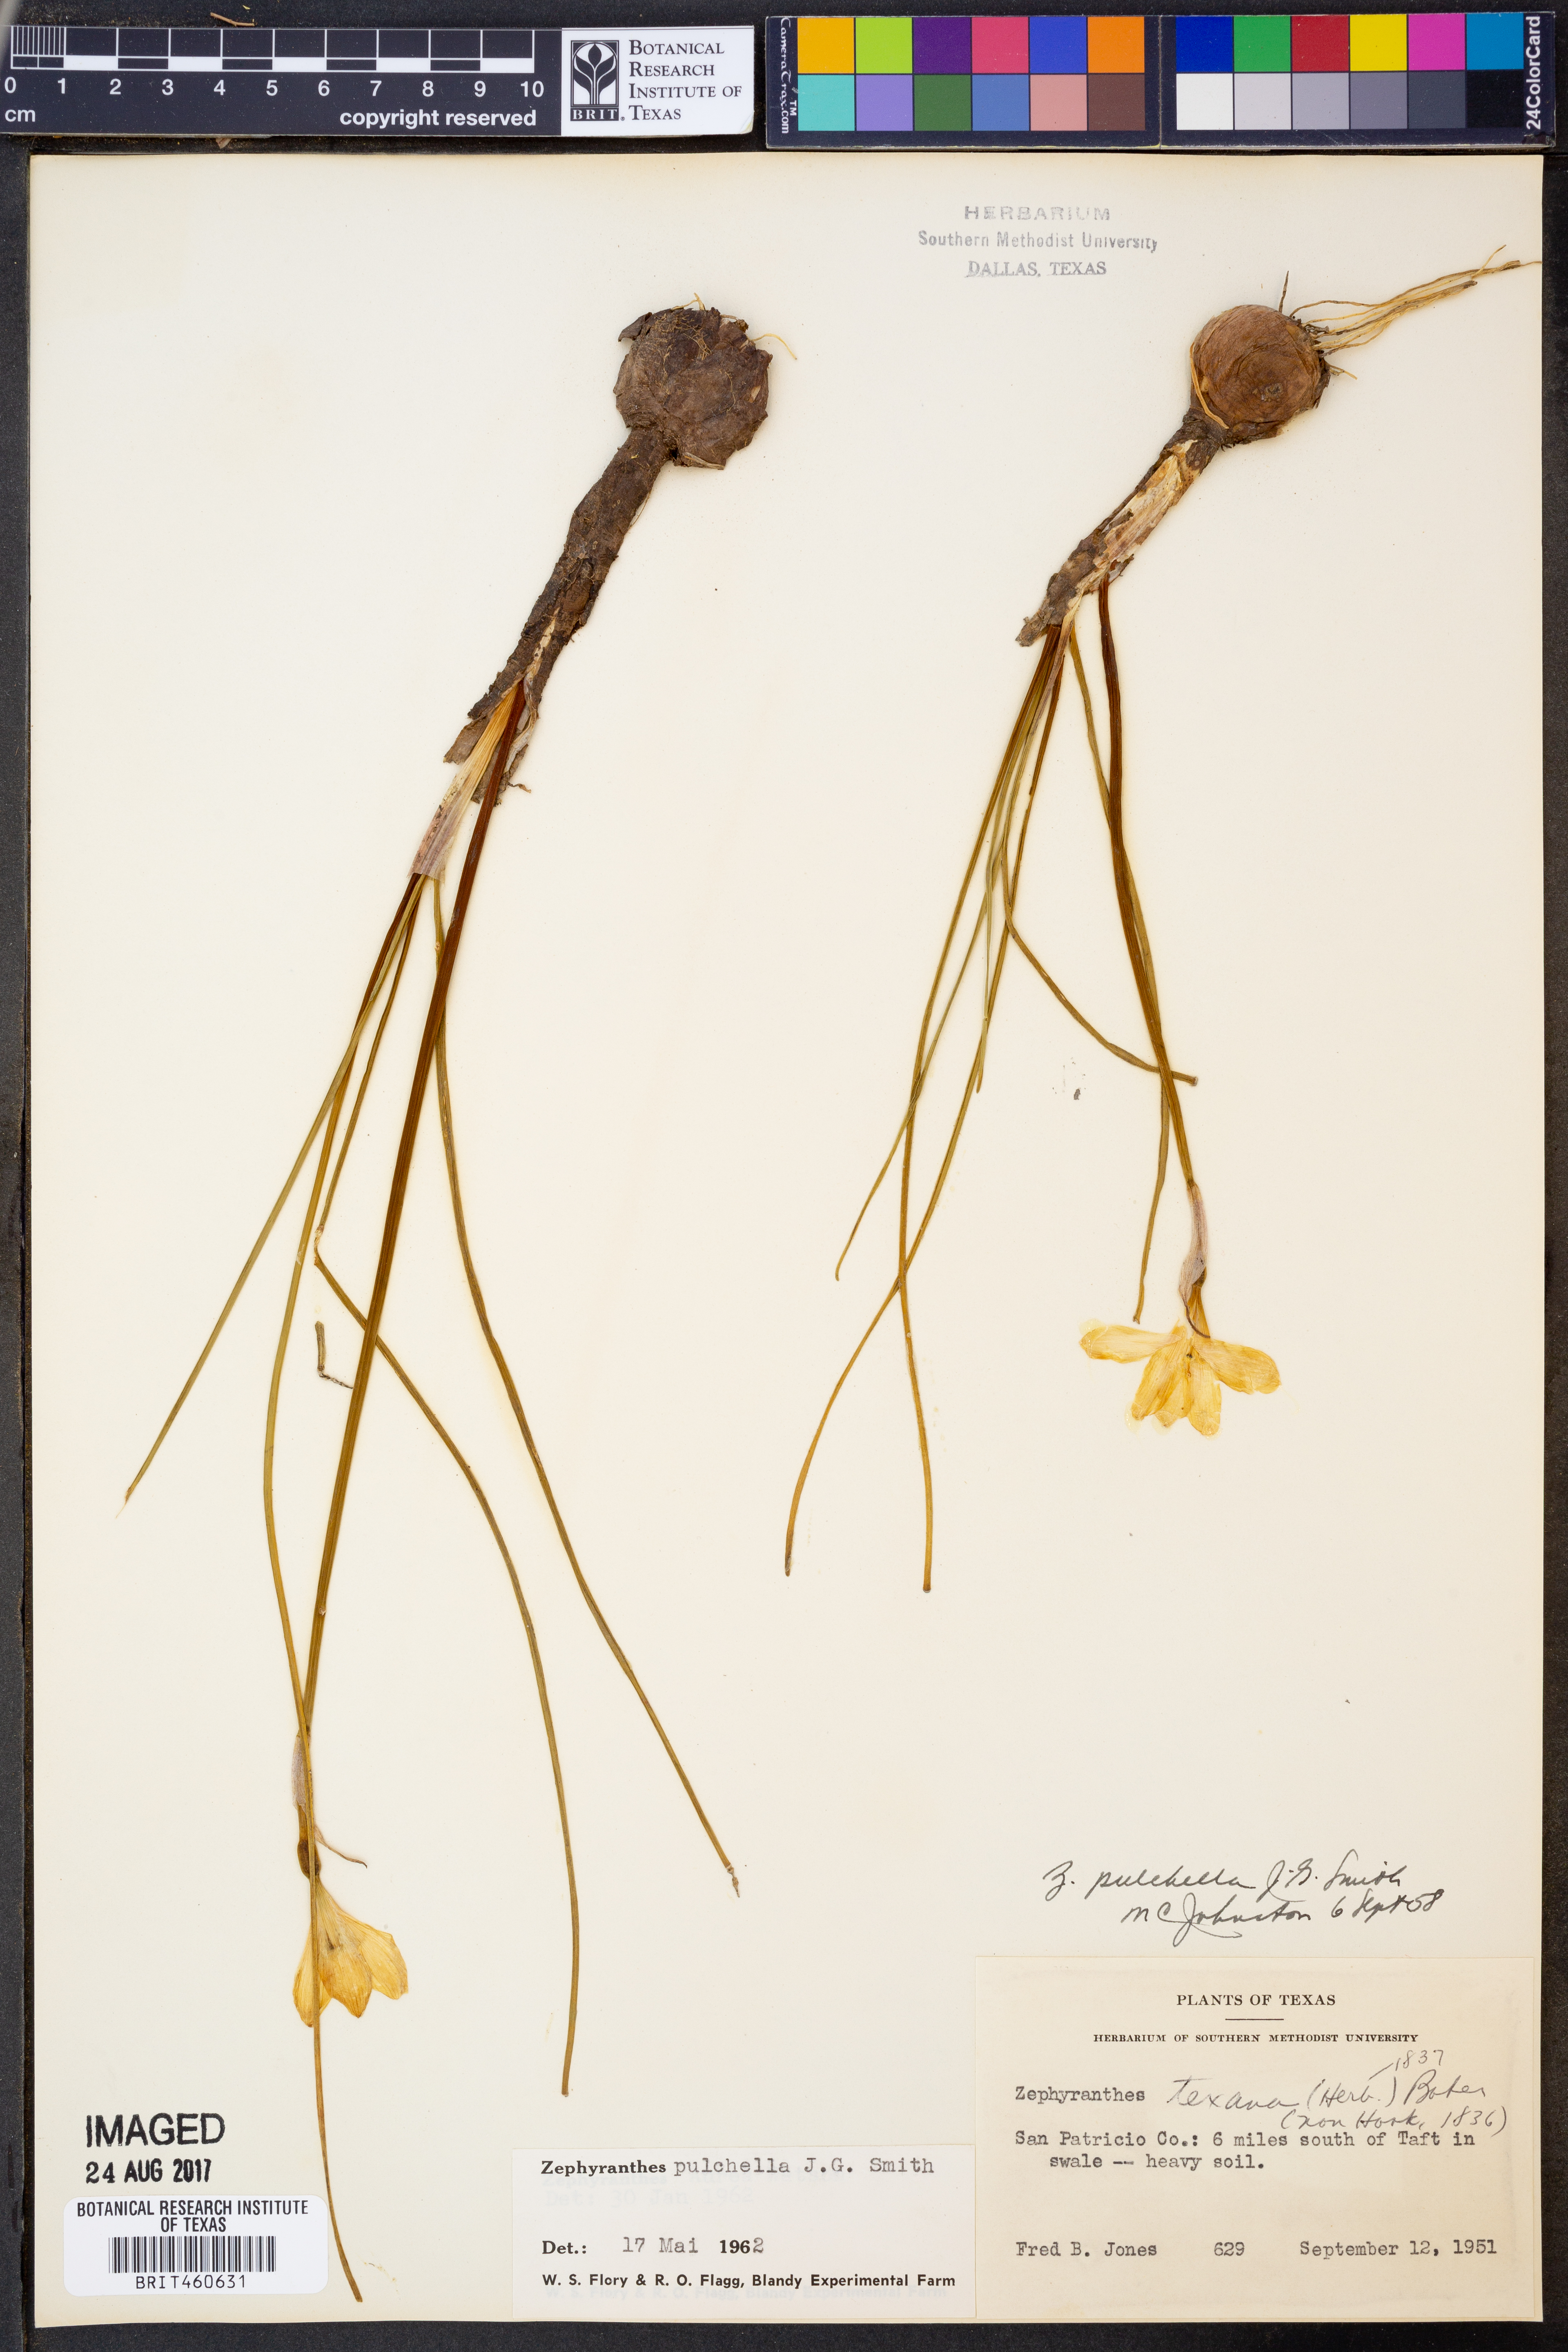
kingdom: Plantae
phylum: Tracheophyta
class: Liliopsida
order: Asparagales
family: Amaryllidaceae
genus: Zephyranthes
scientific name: Zephyranthes pulchella
